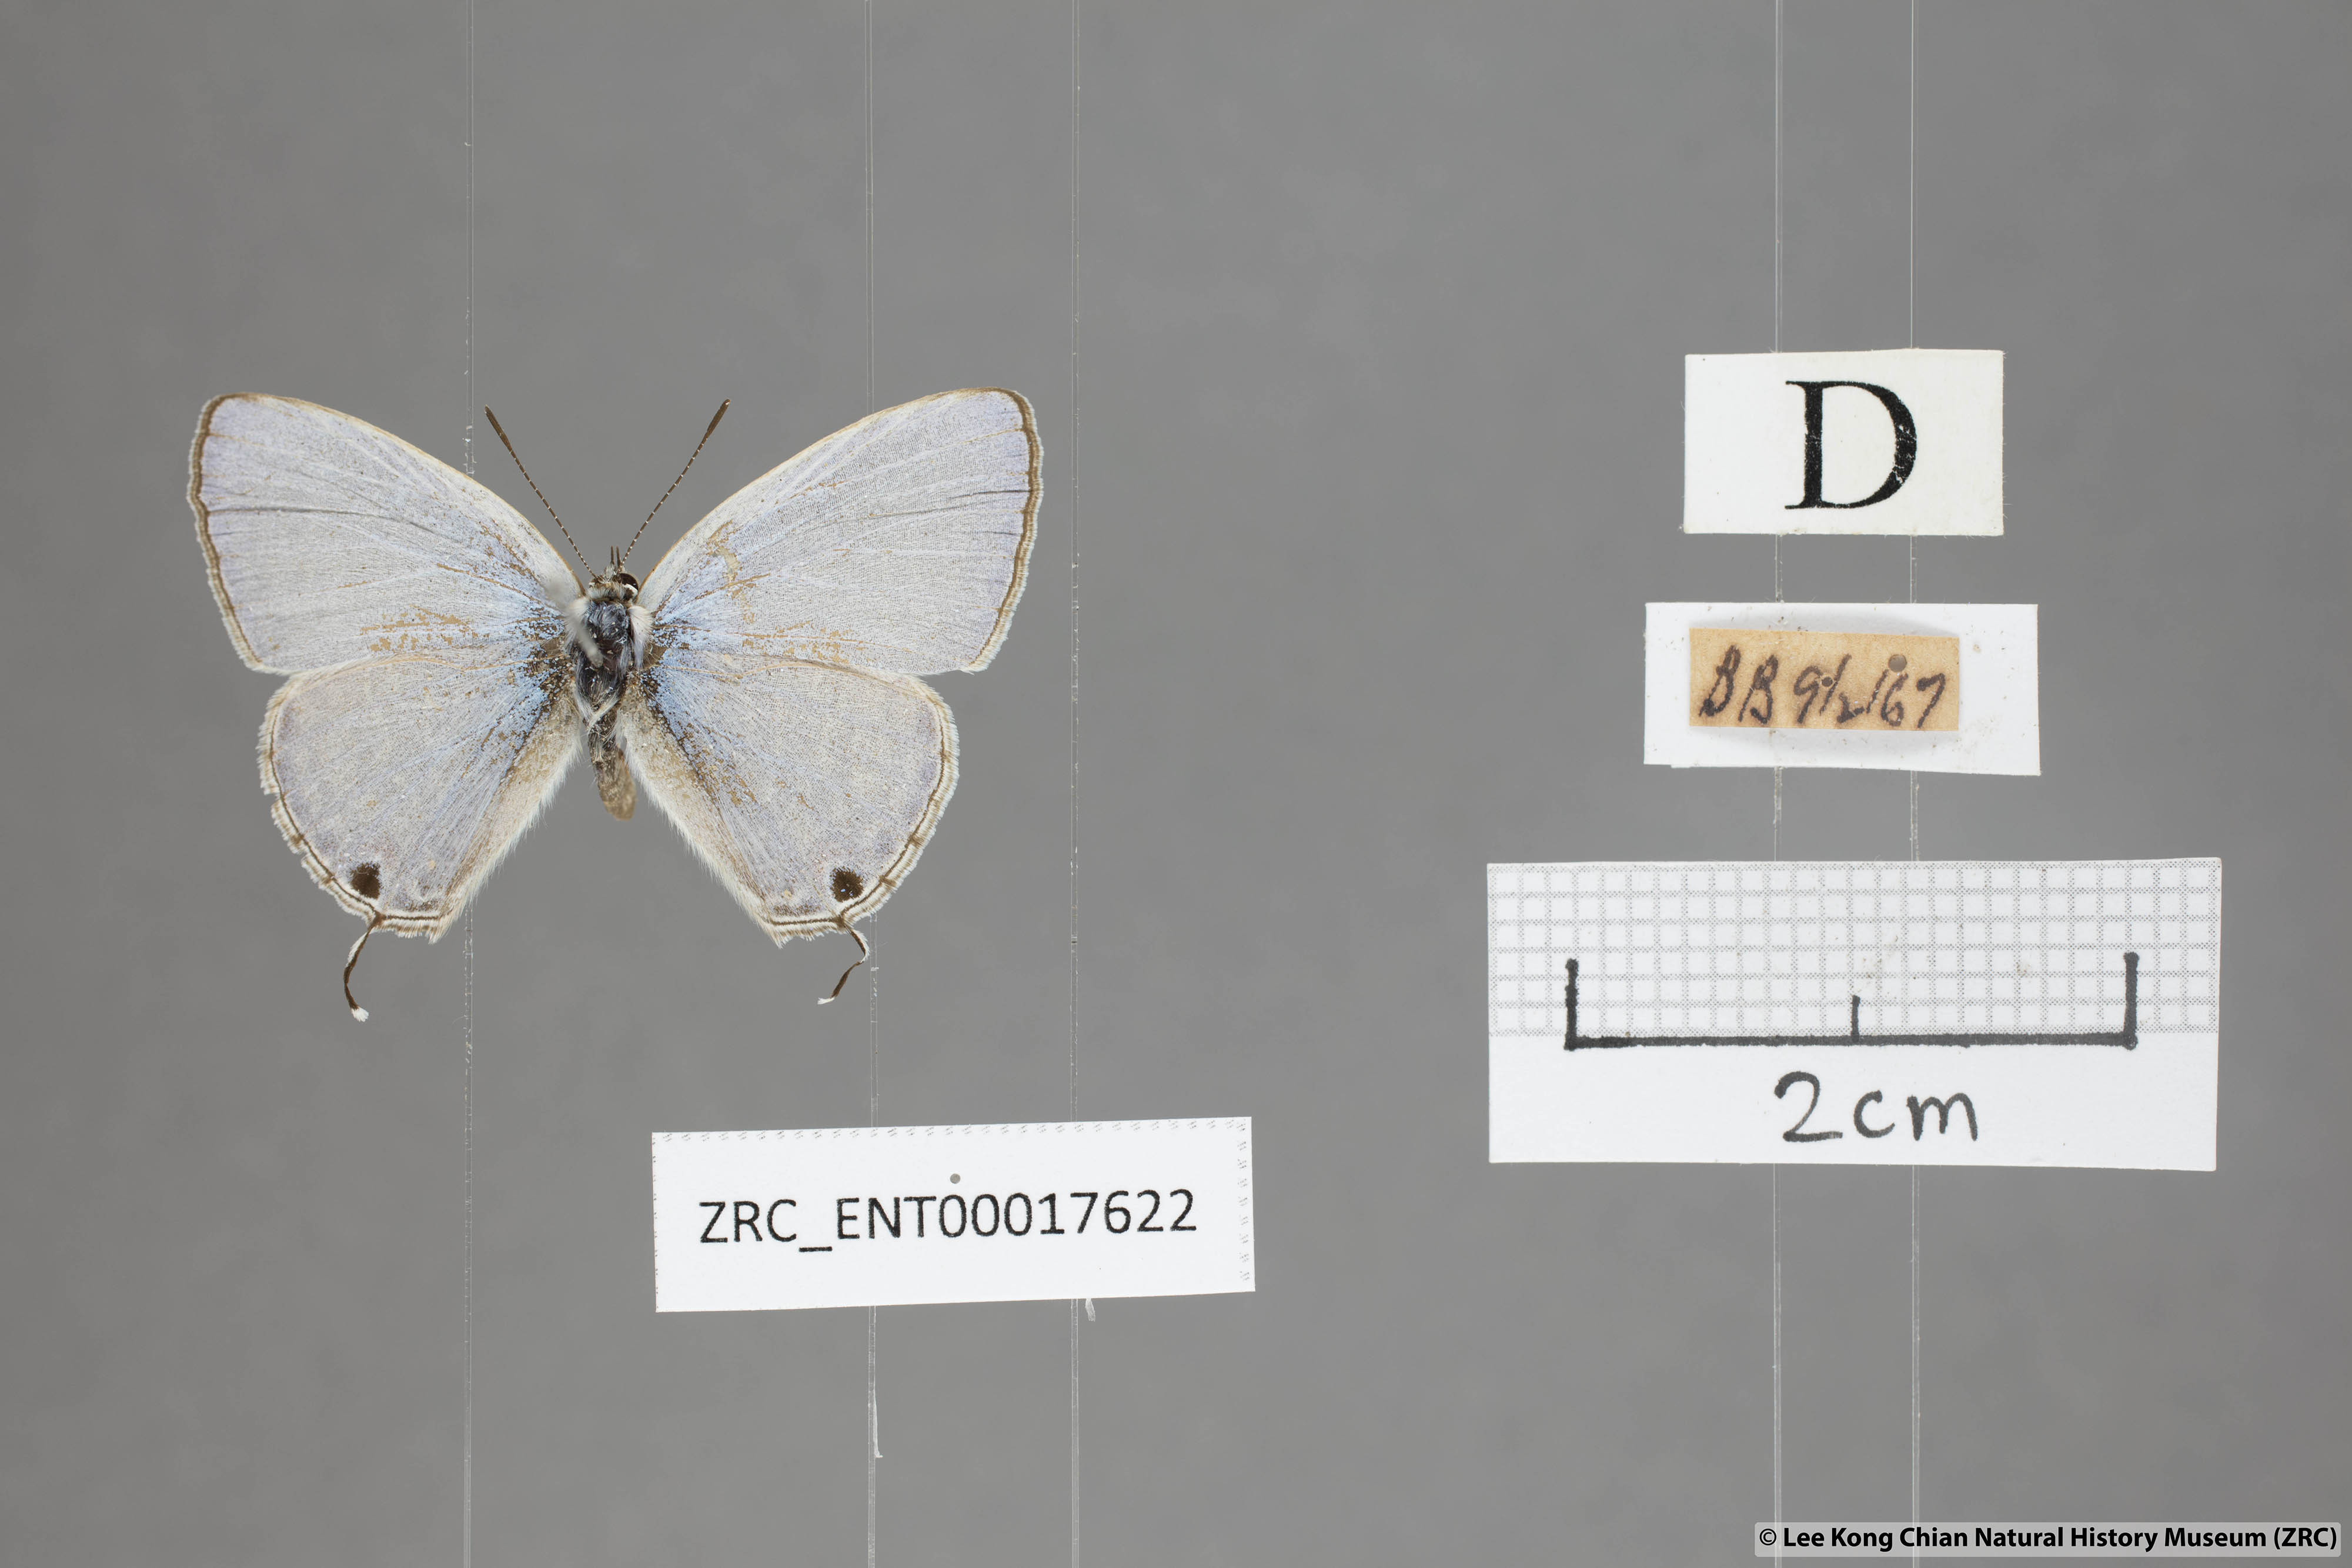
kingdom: Animalia
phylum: Arthropoda
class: Insecta
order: Lepidoptera
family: Lycaenidae
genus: Catochrysops
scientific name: Catochrysops panormus
